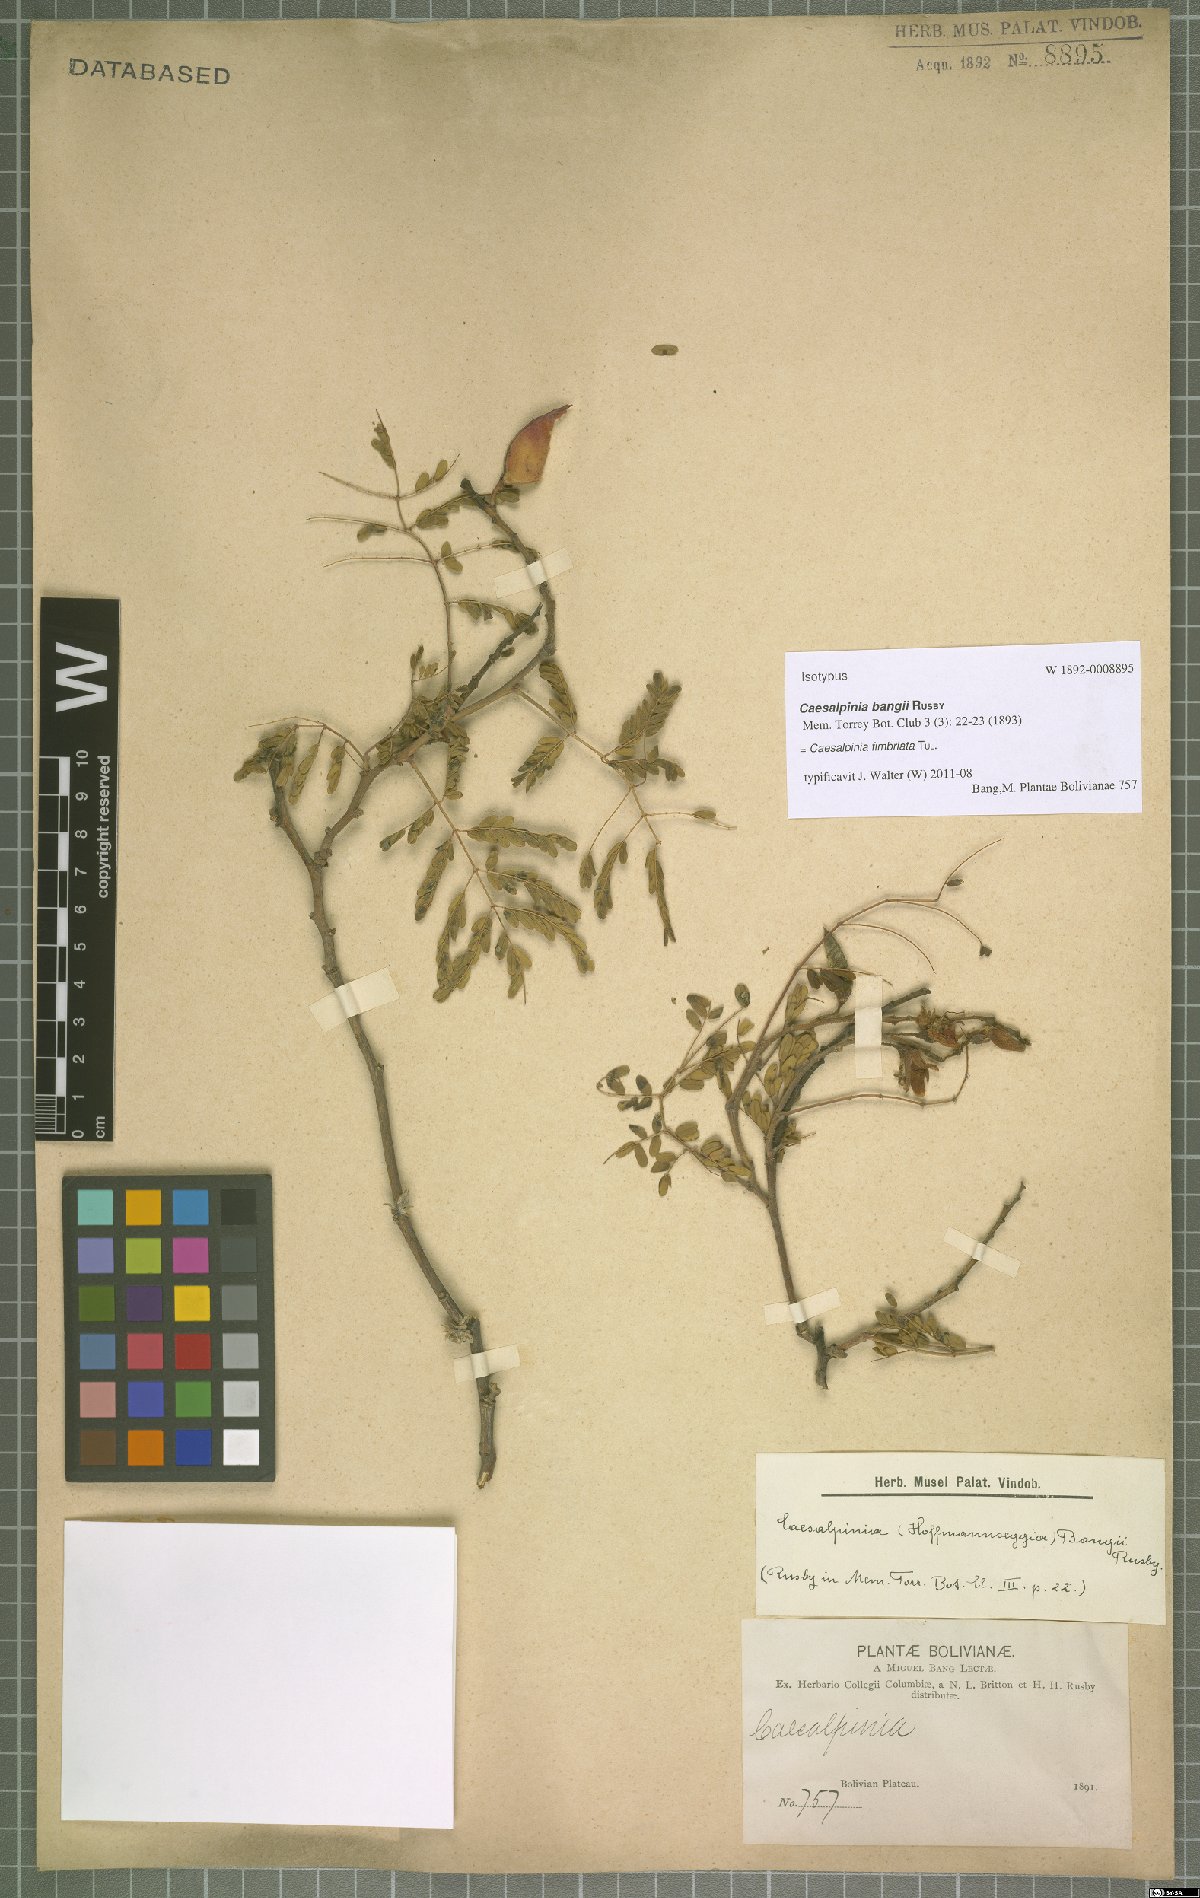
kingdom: Plantae
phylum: Tracheophyta
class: Magnoliopsida
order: Fabales
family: Fabaceae
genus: Erythrostemon
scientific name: Erythrostemon fimbriatus
